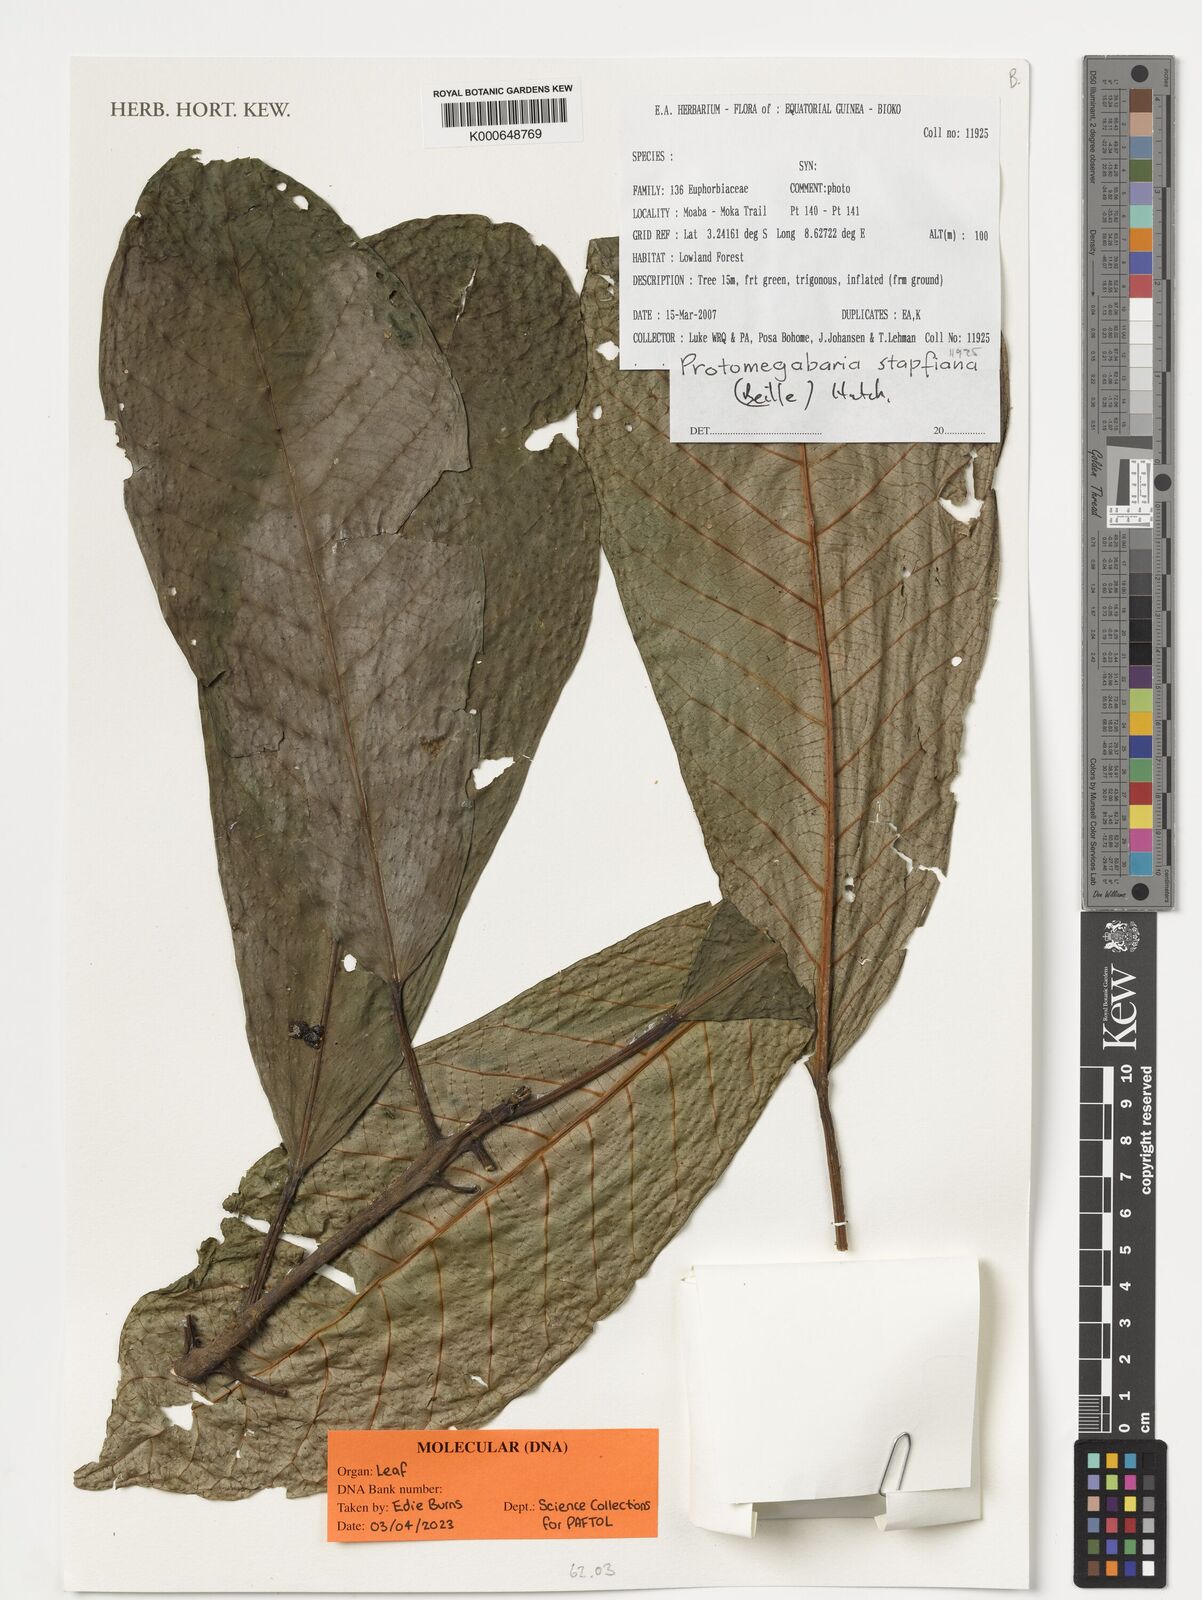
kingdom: Plantae
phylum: Tracheophyta
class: Magnoliopsida
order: Malpighiales
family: Phyllanthaceae
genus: Protomegabaria
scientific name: Protomegabaria stapfiana
